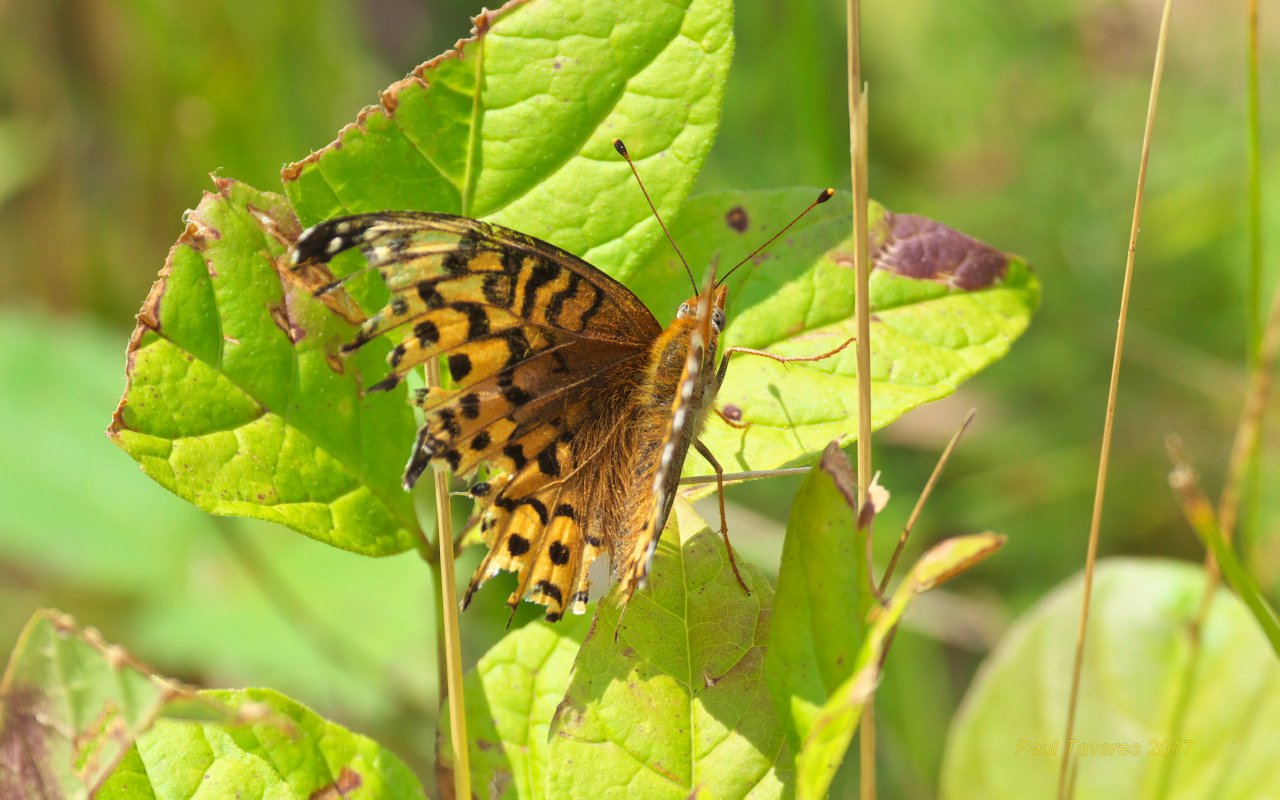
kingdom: Animalia
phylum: Arthropoda
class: Insecta
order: Lepidoptera
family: Nymphalidae
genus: Speyeria
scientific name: Speyeria atlantis
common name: Atlantis Fritillary
